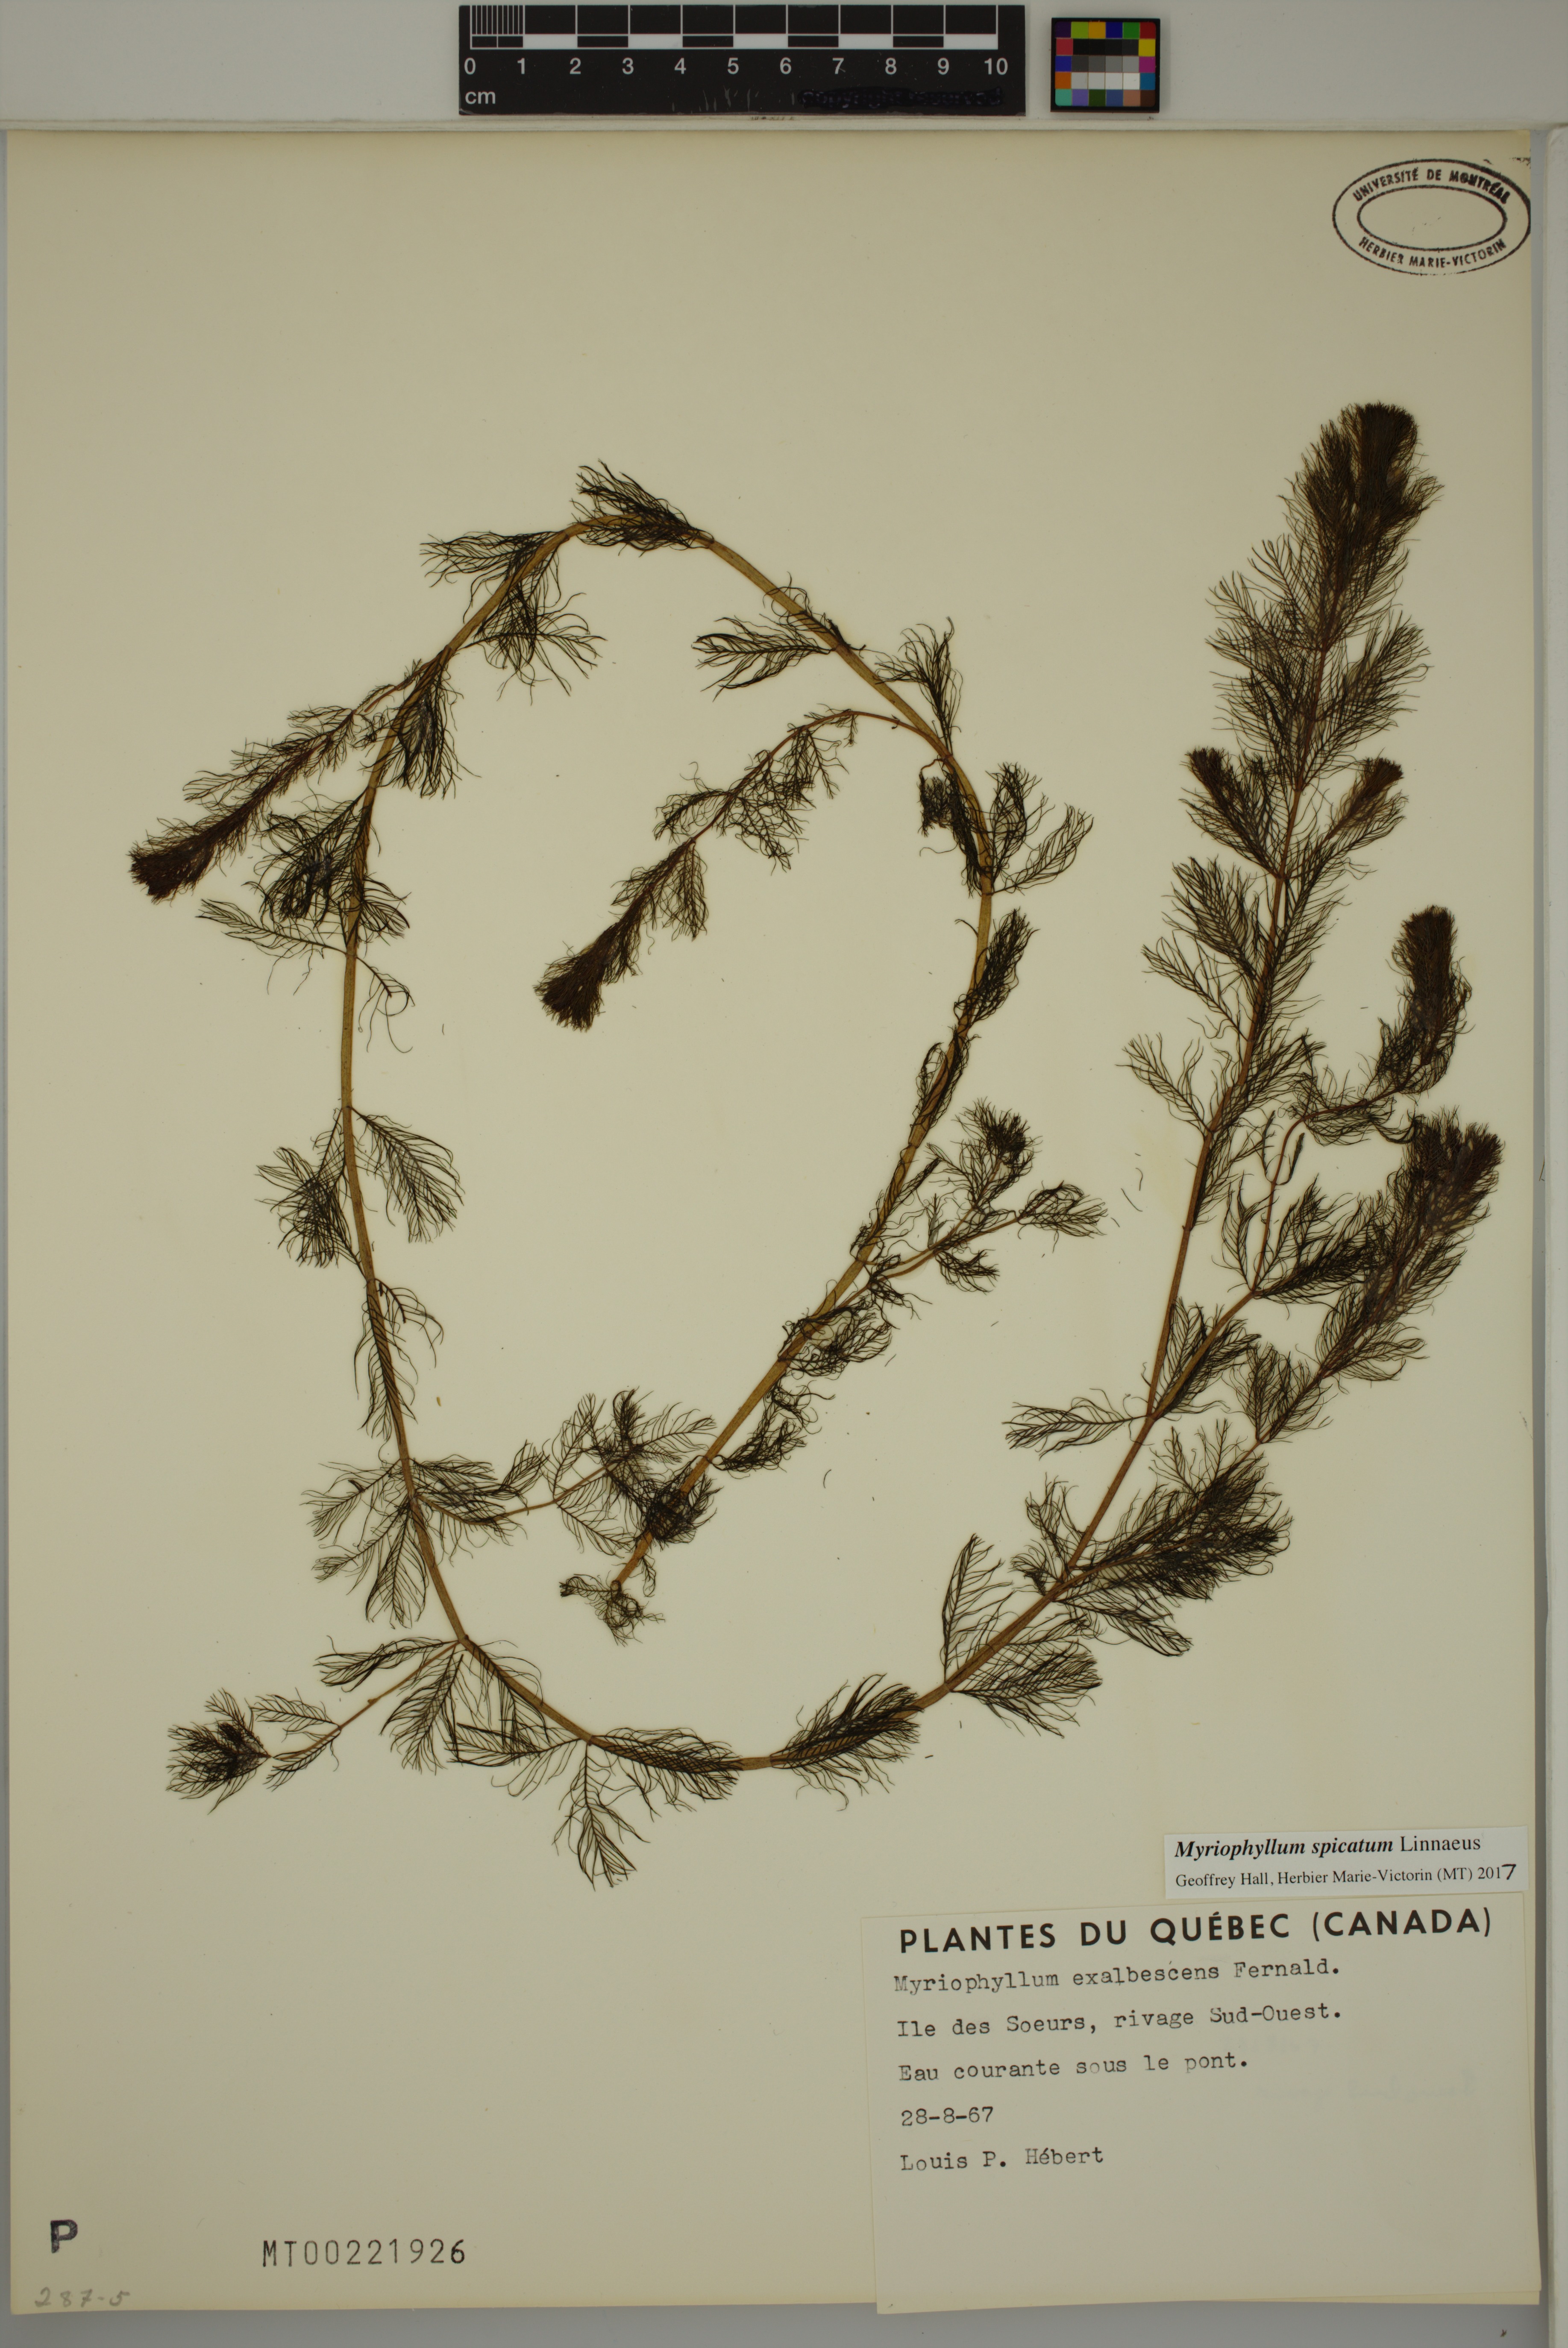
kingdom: Plantae
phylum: Tracheophyta
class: Magnoliopsida
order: Saxifragales
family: Haloragaceae
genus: Myriophyllum
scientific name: Myriophyllum spicatum
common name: Spiked water-milfoil
